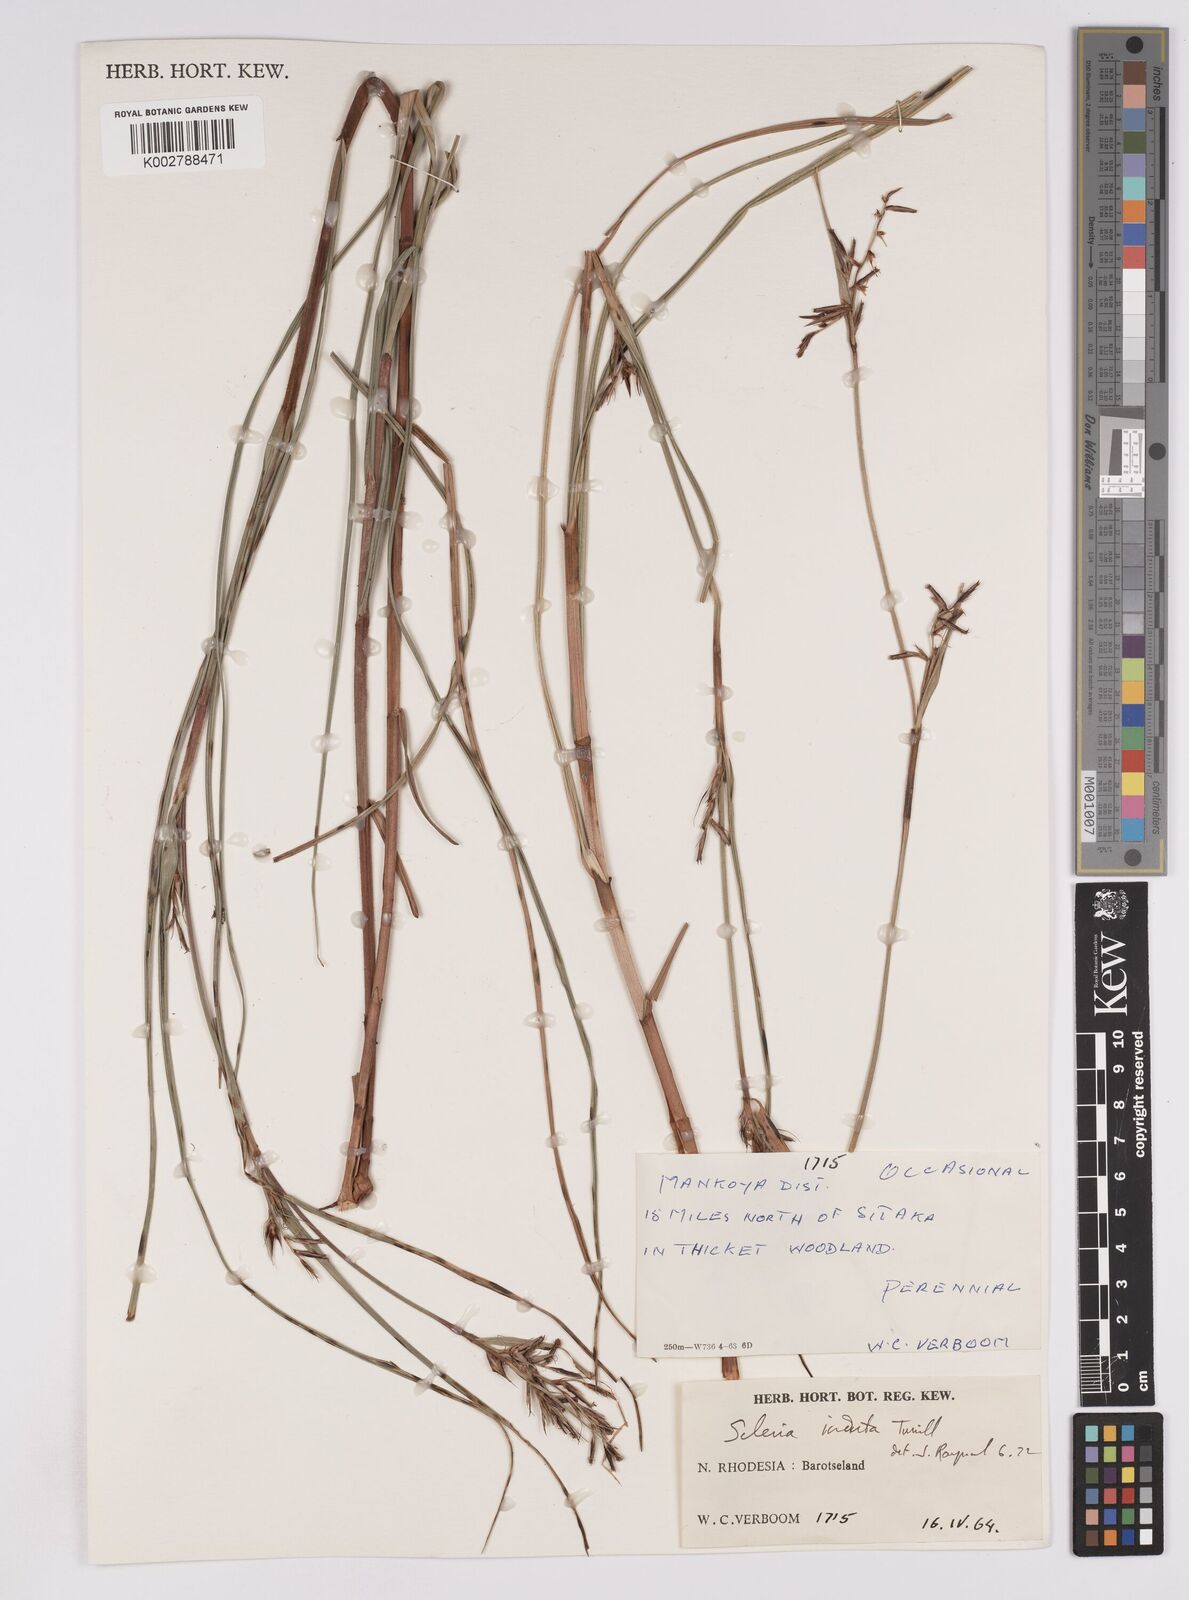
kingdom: Plantae
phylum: Tracheophyta
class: Liliopsida
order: Poales
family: Cyperaceae
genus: Scleria
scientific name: Scleria induta
